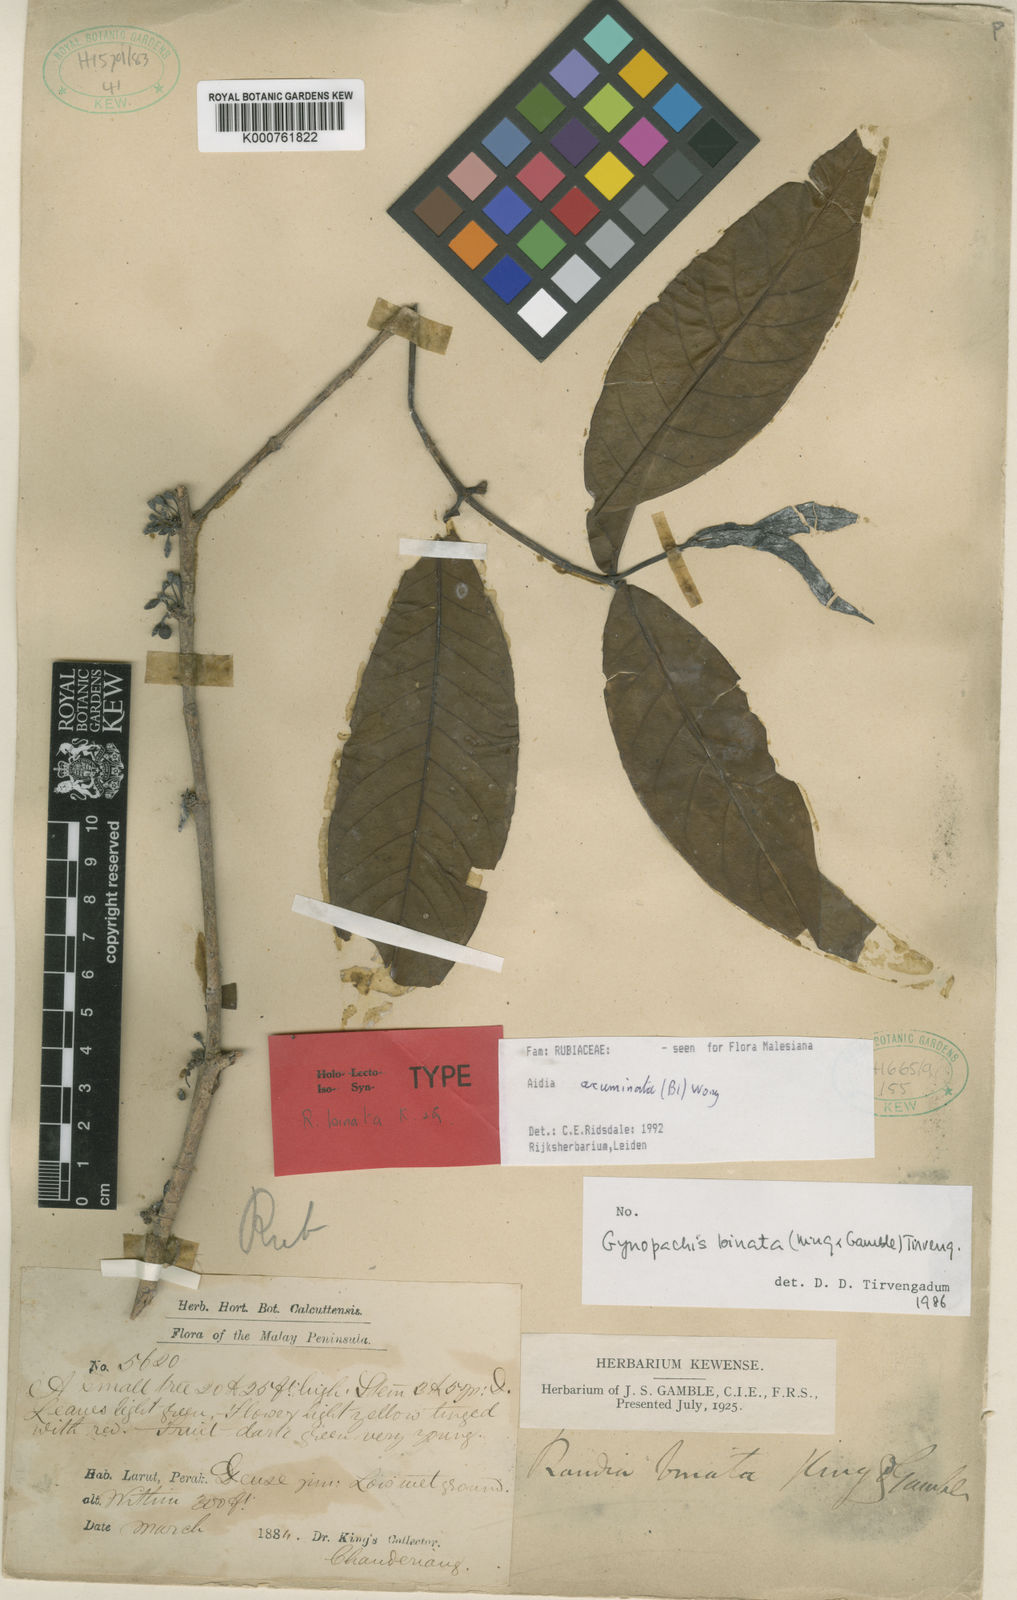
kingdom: Plantae
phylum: Tracheophyta
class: Magnoliopsida
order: Gentianales
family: Rubiaceae
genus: Aidia
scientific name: Aidia acuminata
